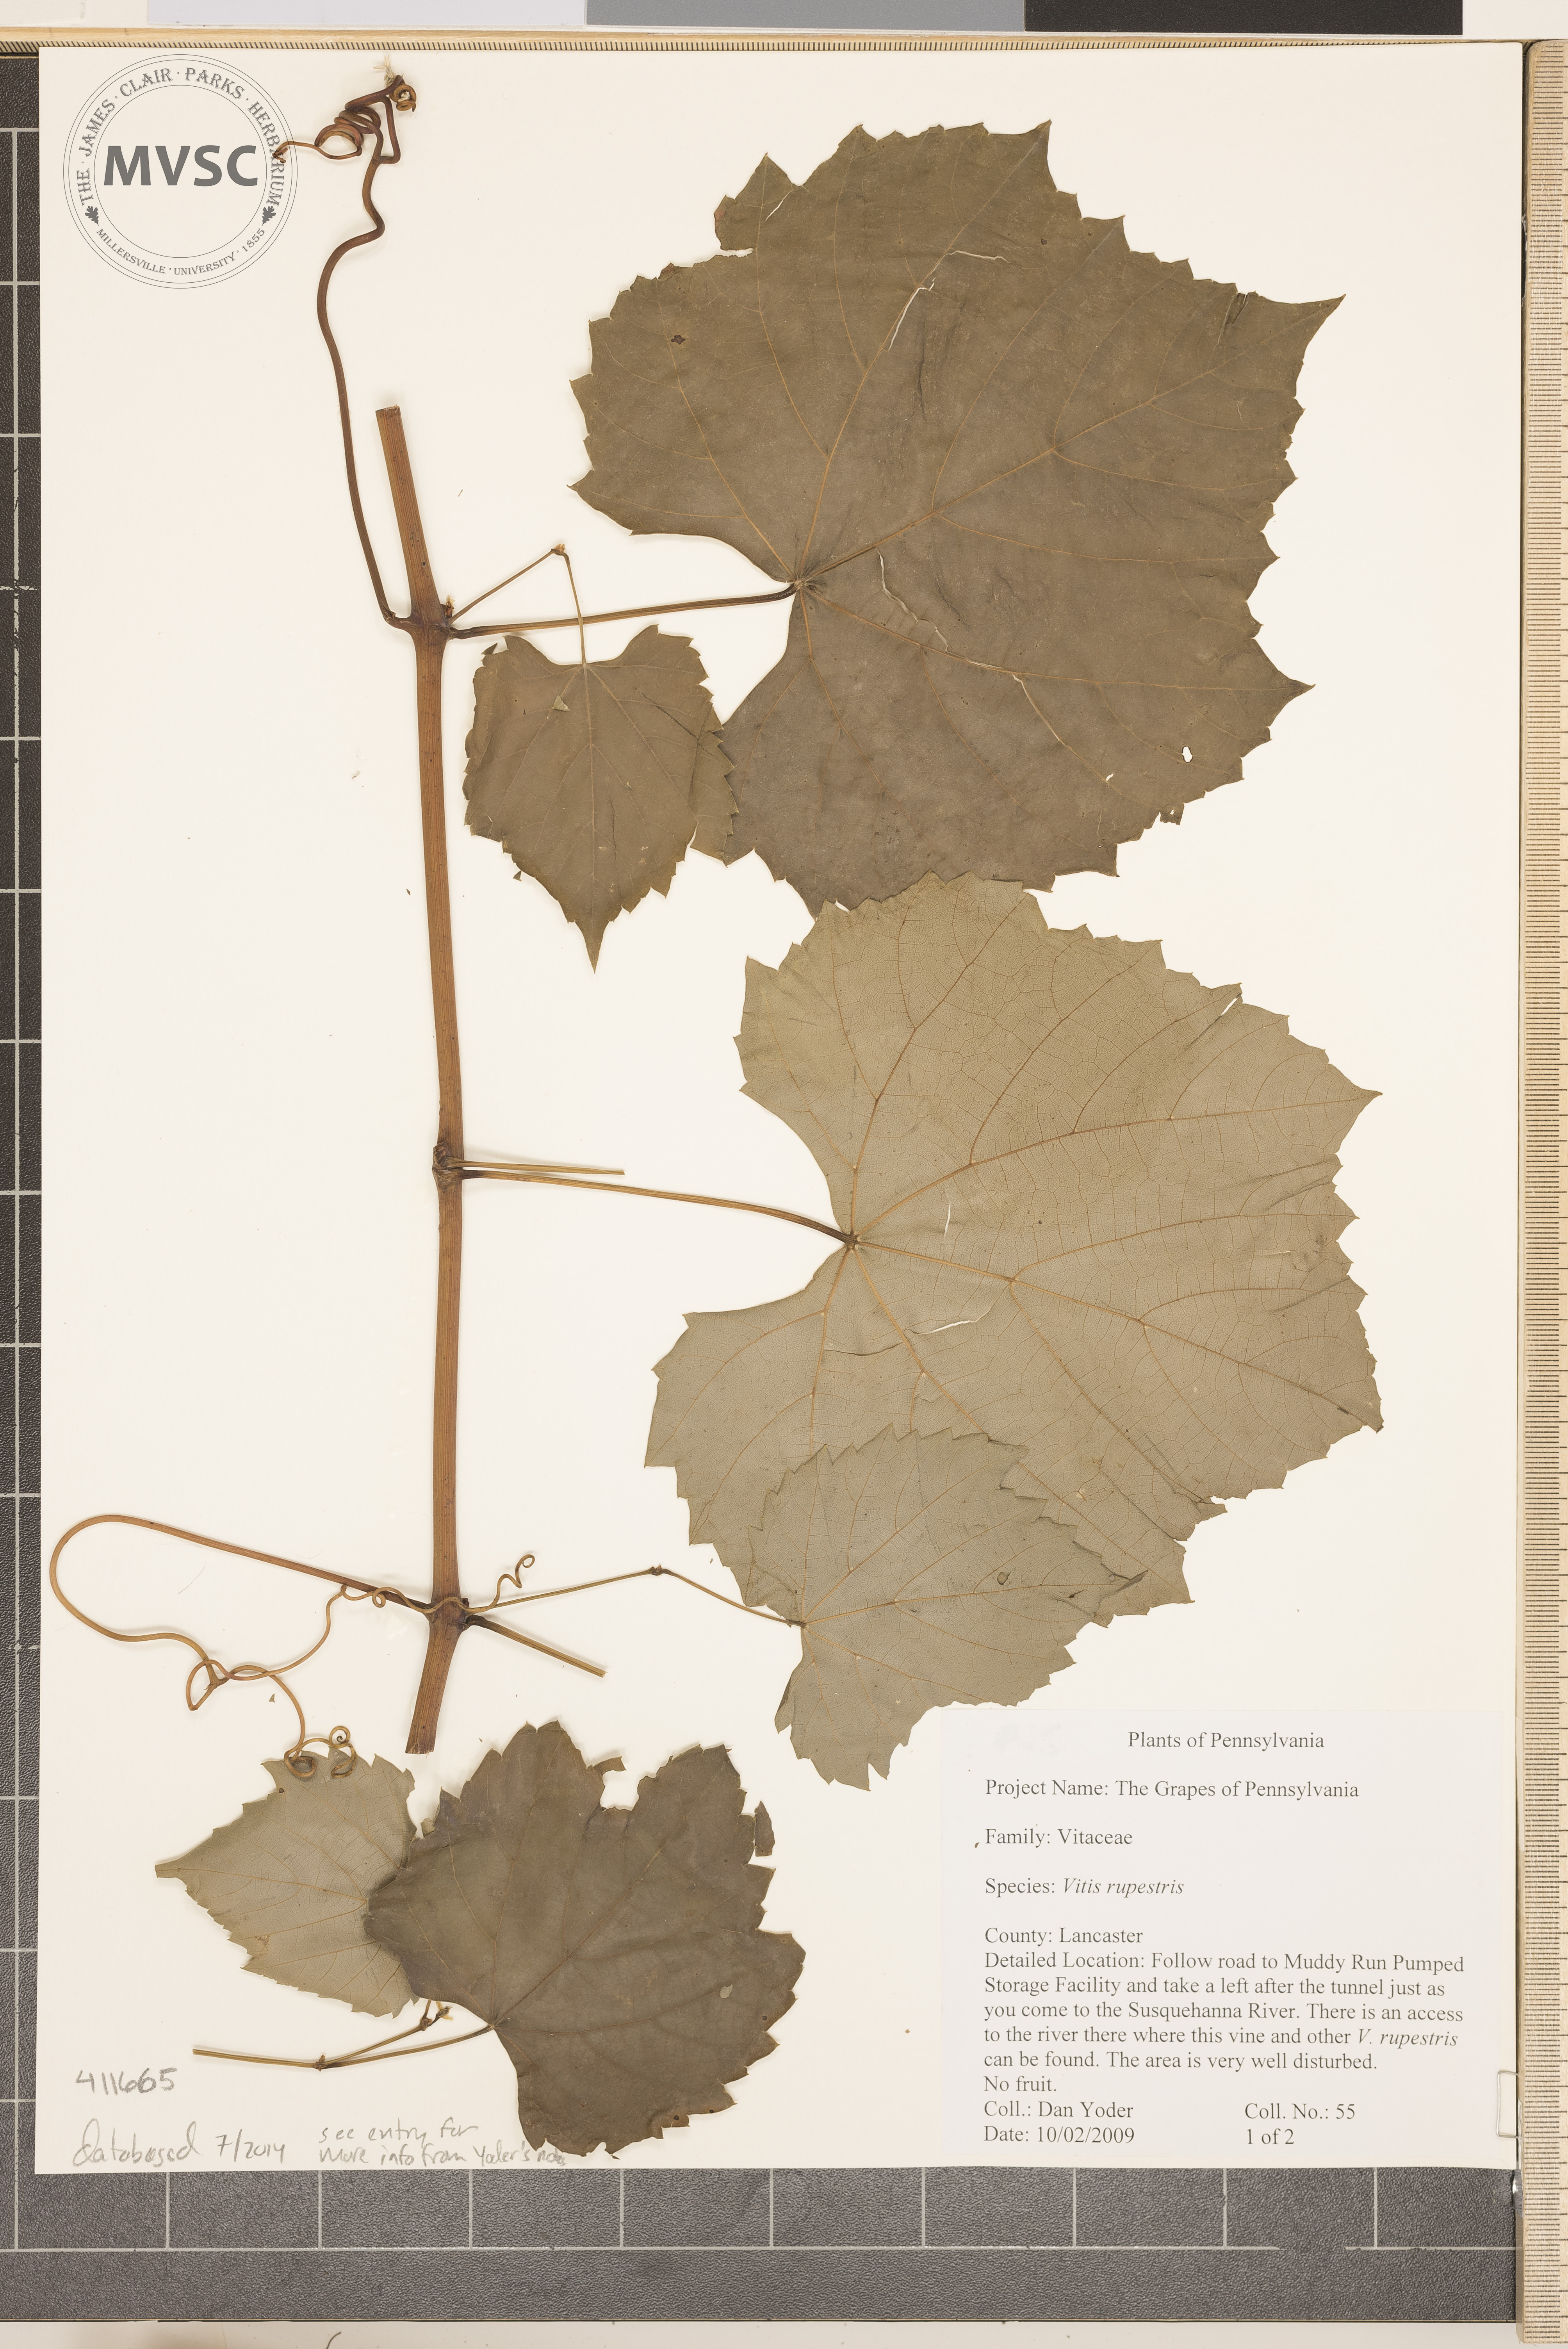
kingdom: Plantae
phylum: Tracheophyta
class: Magnoliopsida
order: Vitales
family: Vitaceae
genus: Vitis
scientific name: Vitis riparia
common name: Frost grape
